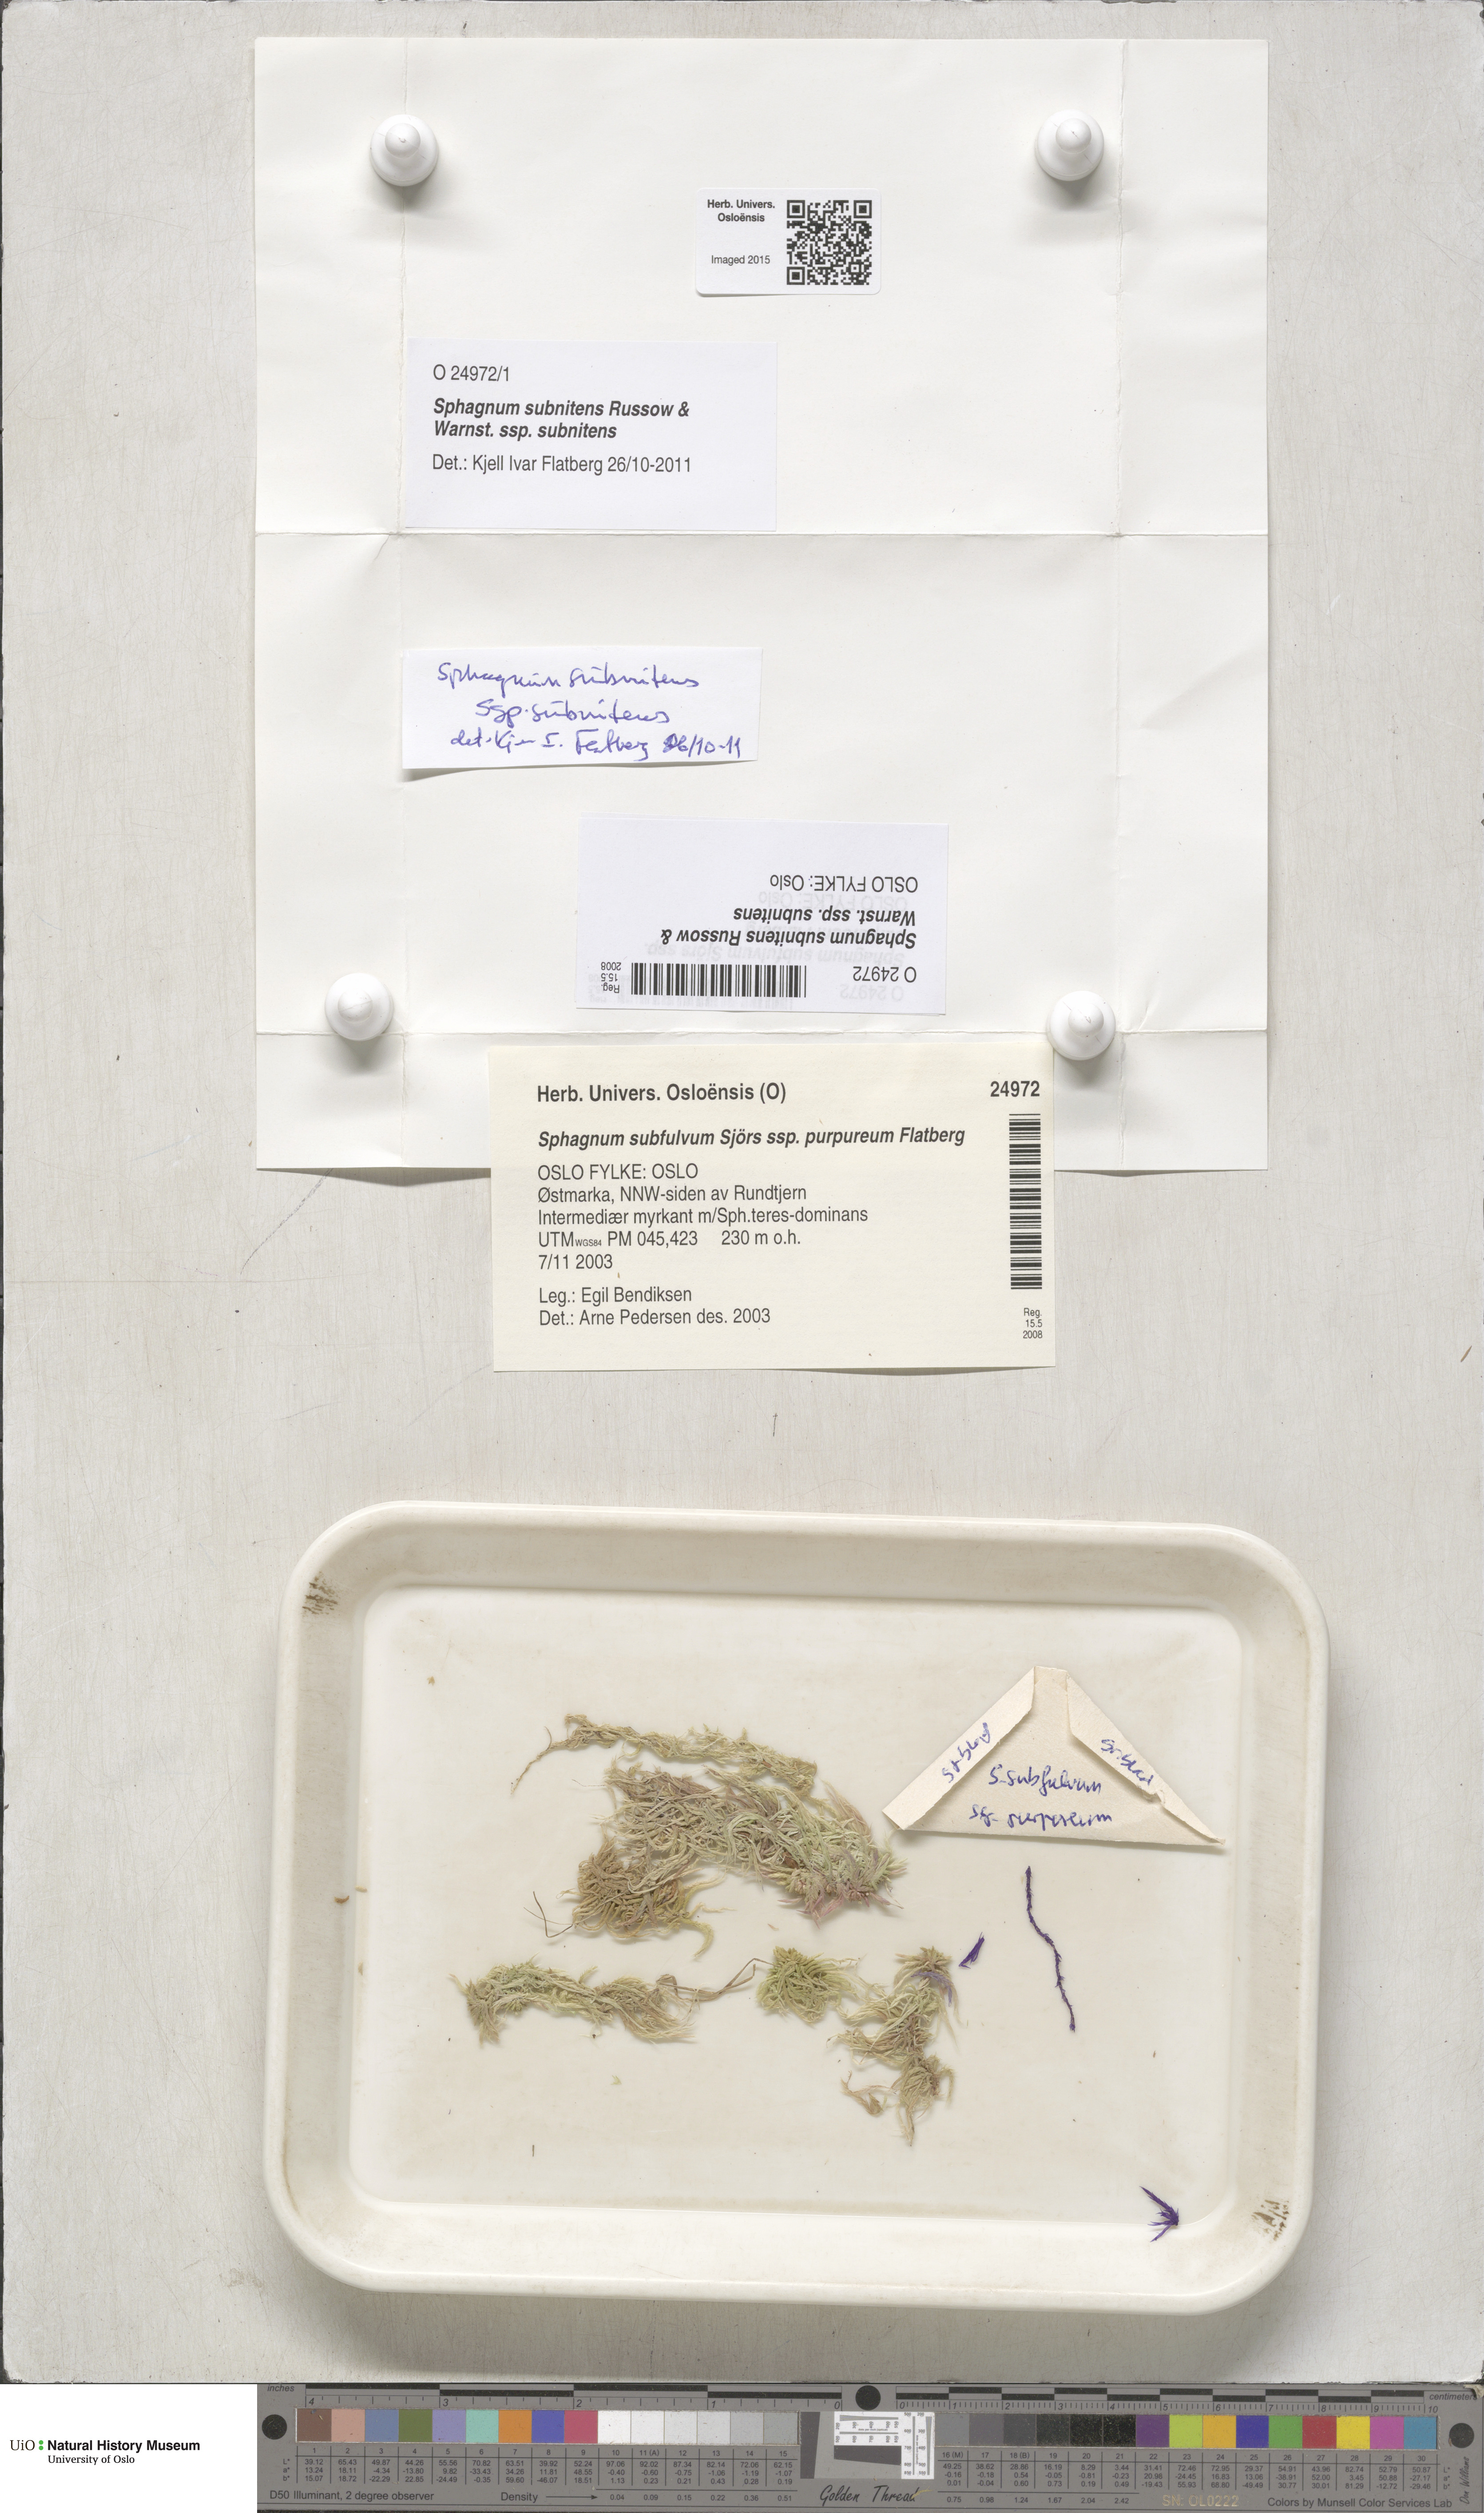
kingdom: Plantae
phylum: Bryophyta
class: Sphagnopsida
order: Sphagnales
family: Sphagnaceae
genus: Sphagnum
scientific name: Sphagnum subnitens
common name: Lustrous bog-moss
